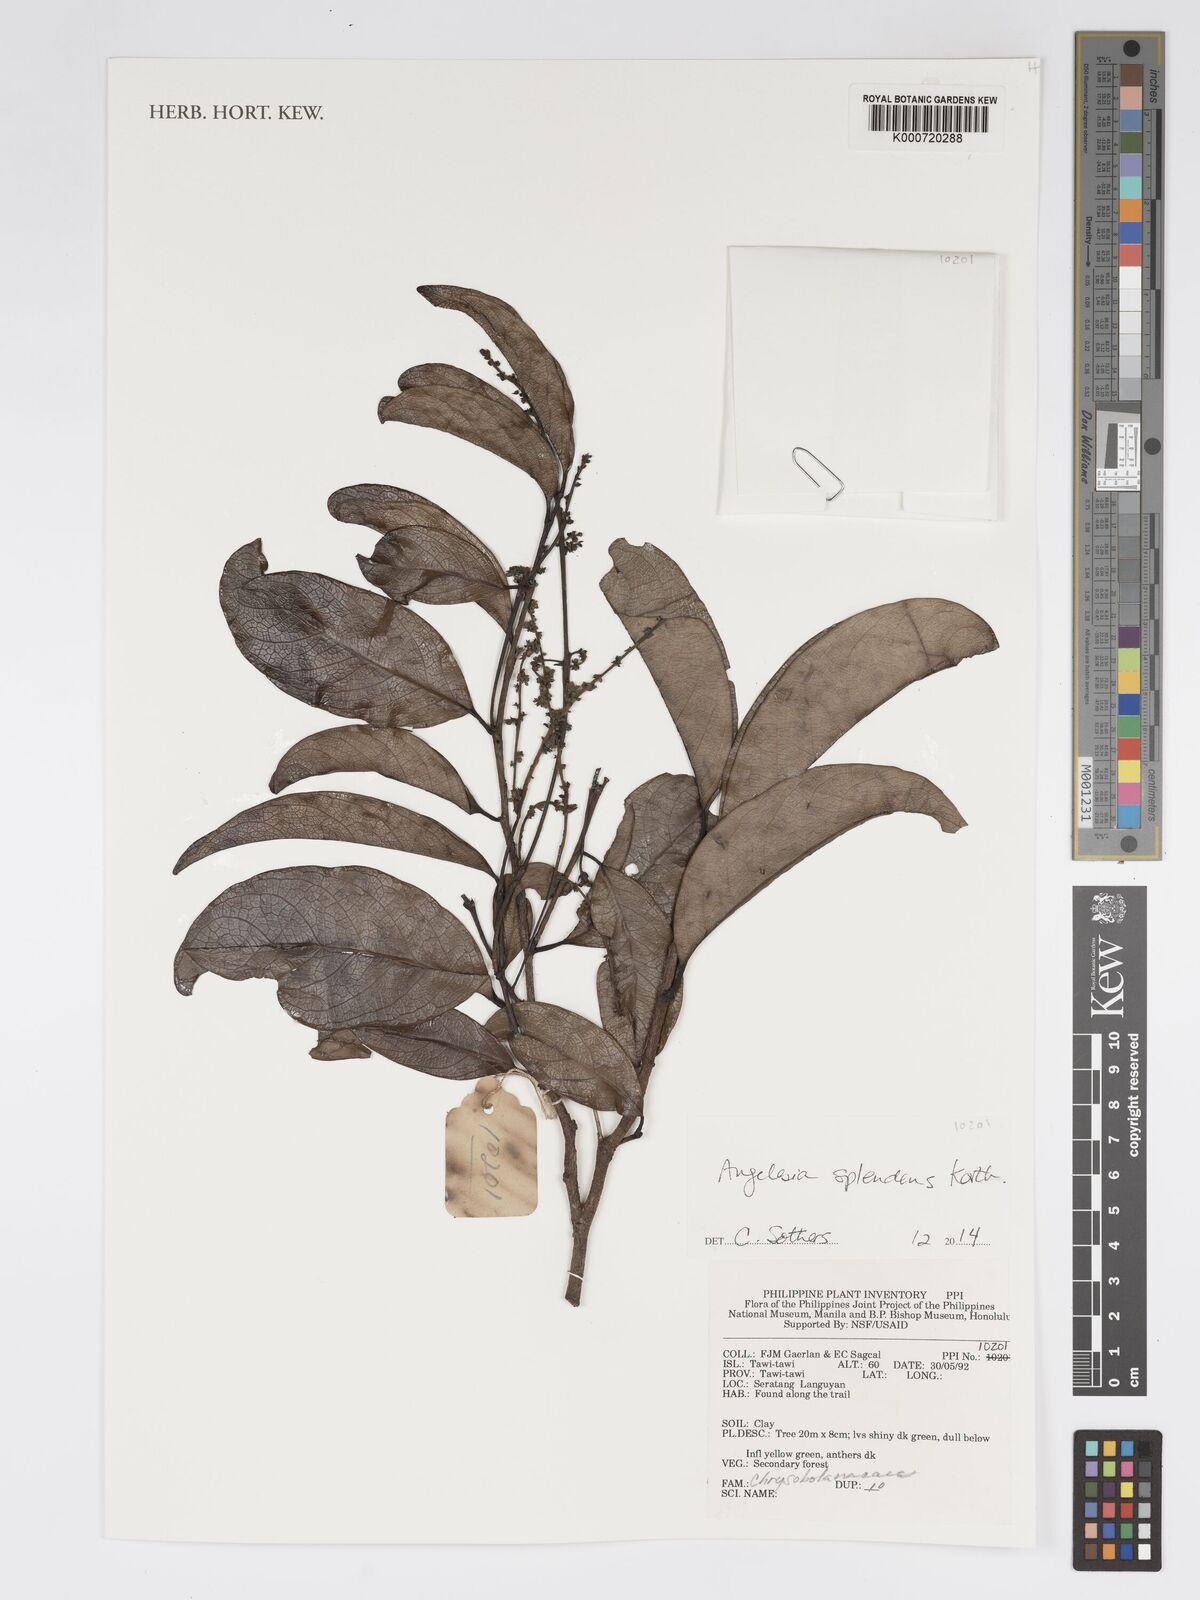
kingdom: Plantae
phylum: Tracheophyta
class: Magnoliopsida
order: Malpighiales
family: Chrysobalanaceae
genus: Angelesia
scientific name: Angelesia splendens
